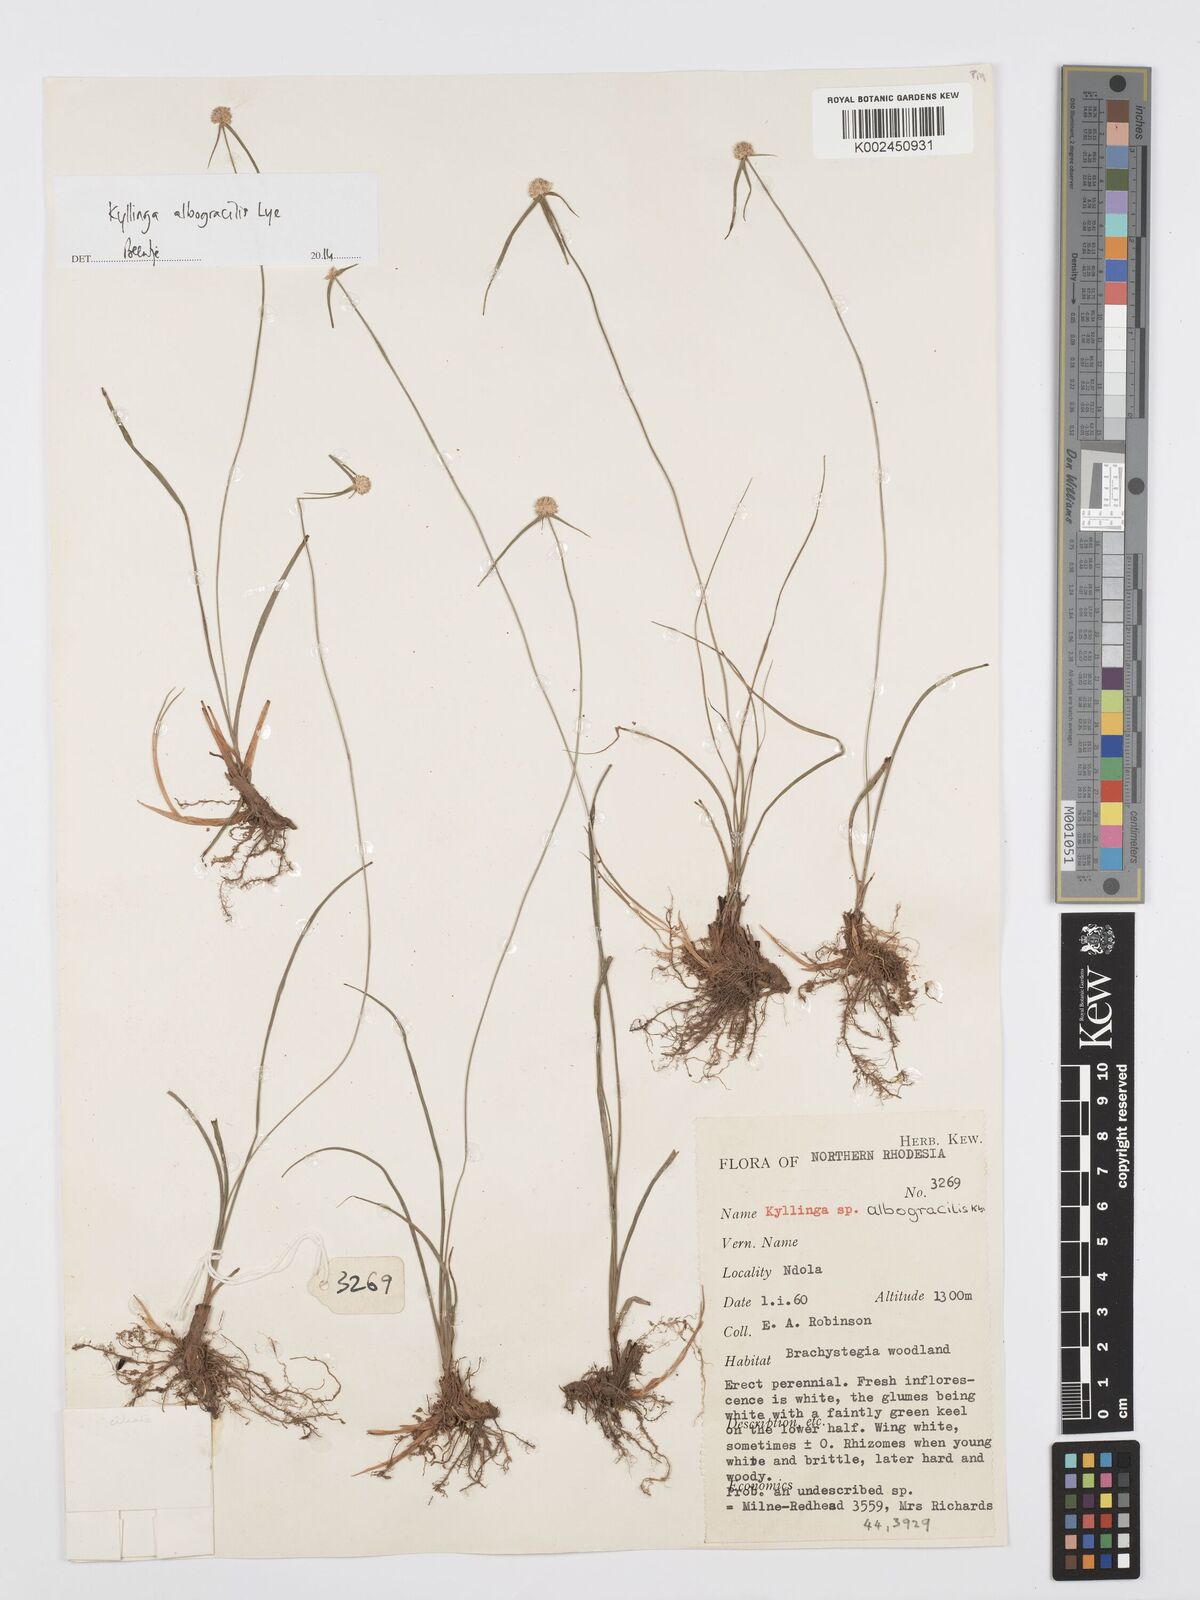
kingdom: Plantae
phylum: Tracheophyta
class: Liliopsida
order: Poales
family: Cyperaceae
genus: Cyperus
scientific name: Cyperus albogracilis
